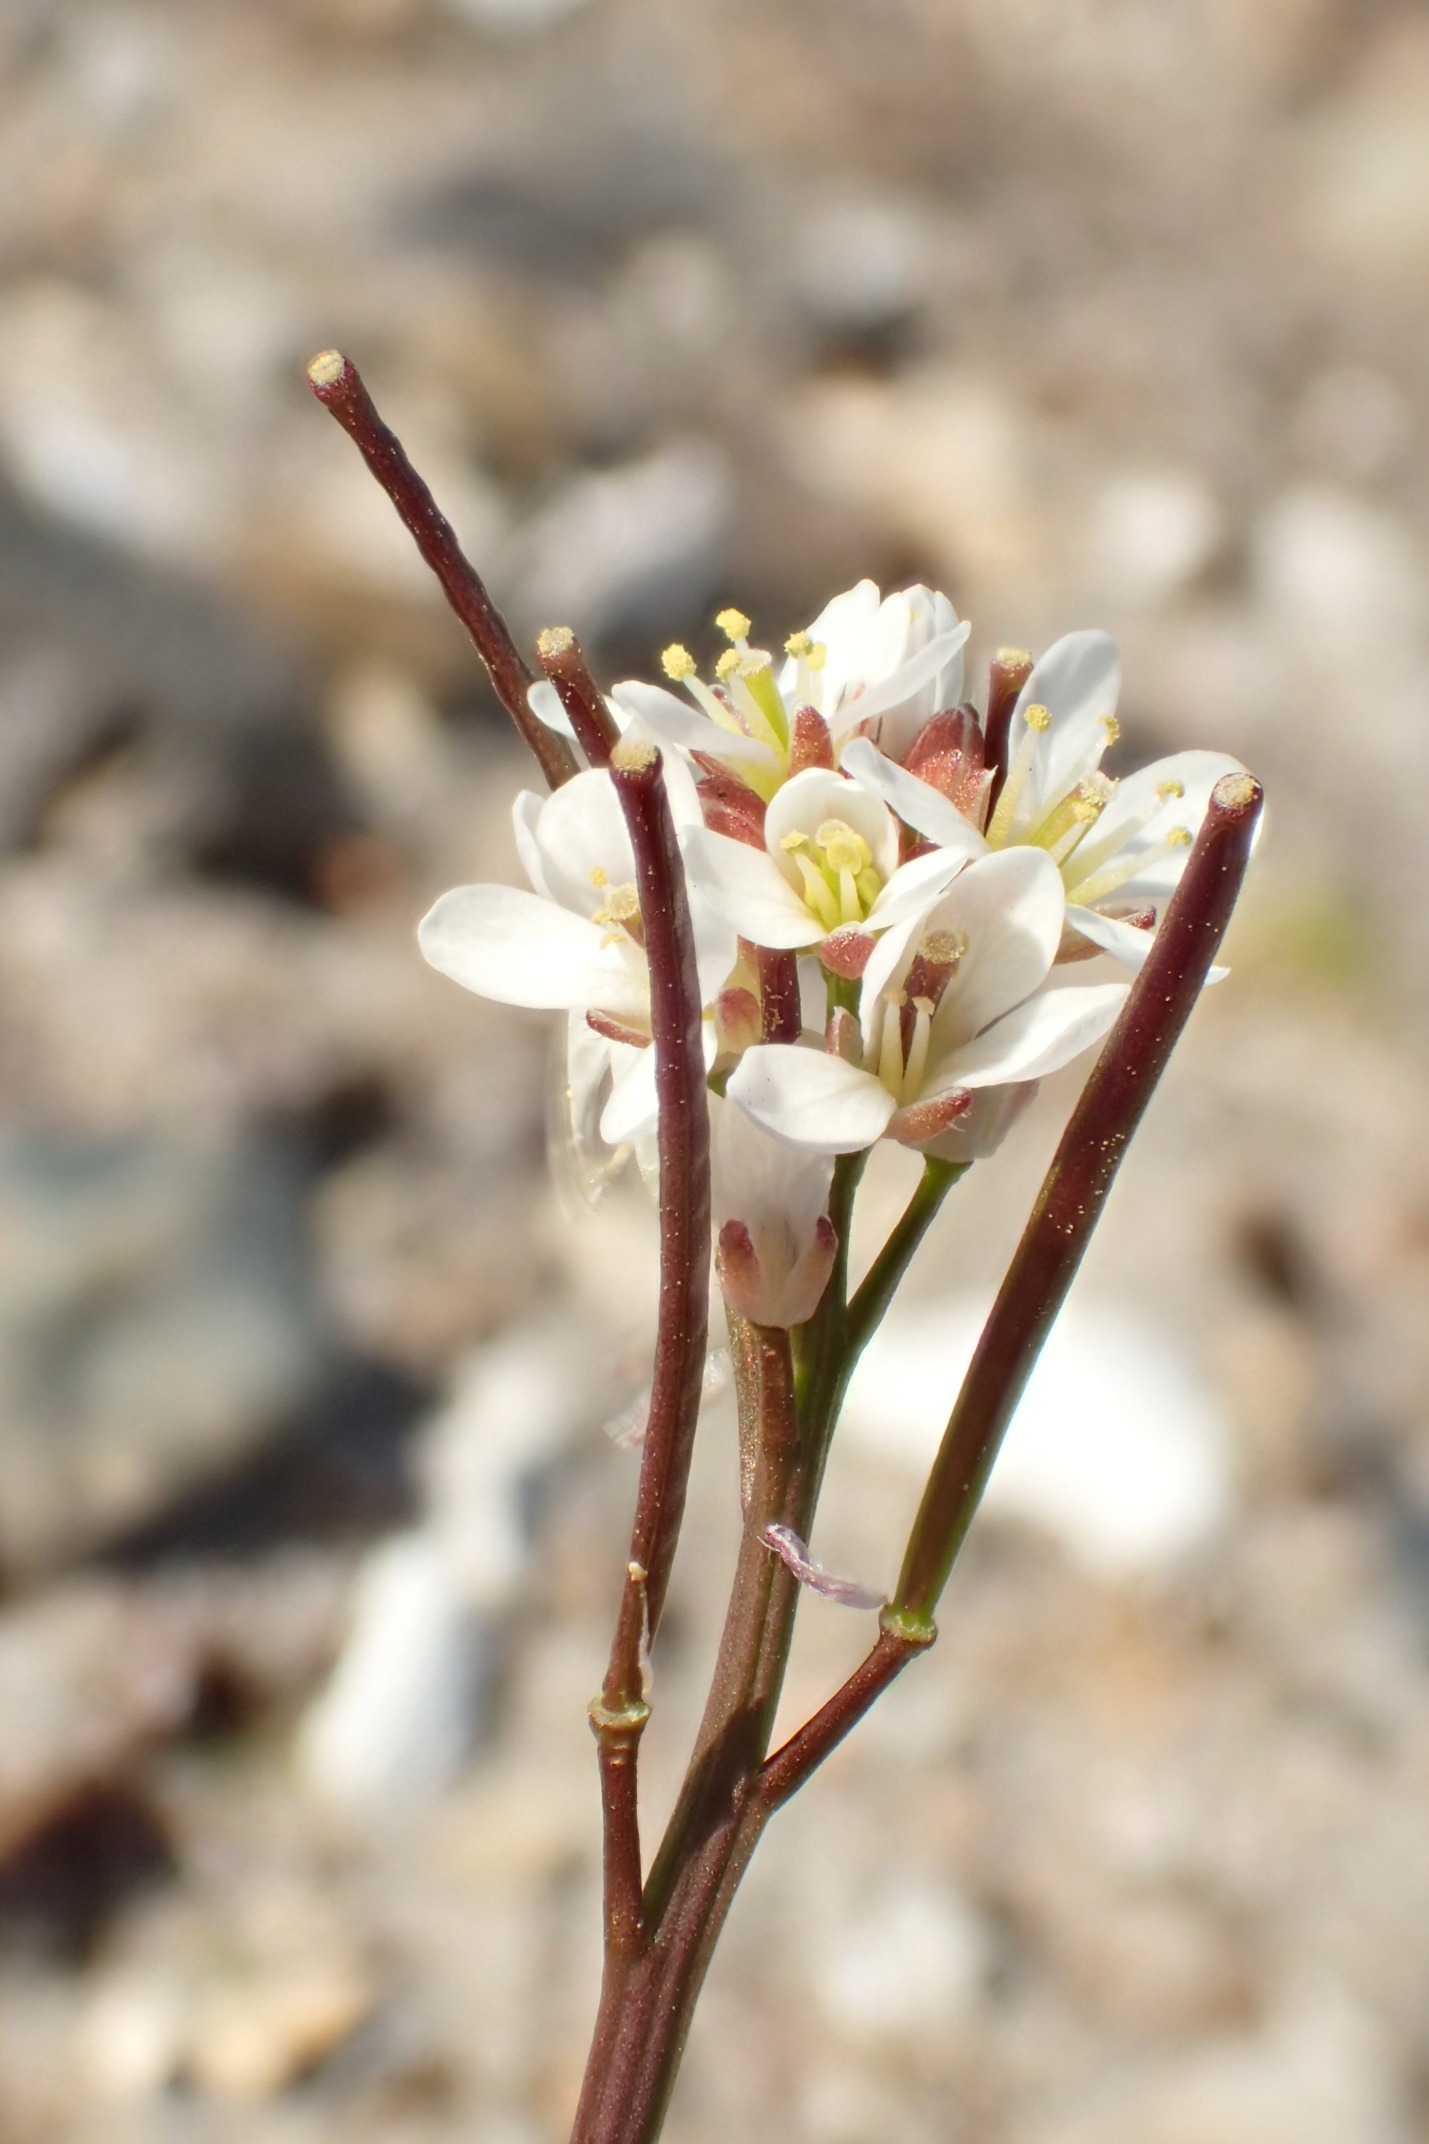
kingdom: Plantae
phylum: Tracheophyta
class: Magnoliopsida
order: Brassicales
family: Brassicaceae
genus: Cardamine
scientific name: Cardamine hirsuta
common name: Roset-springklap
